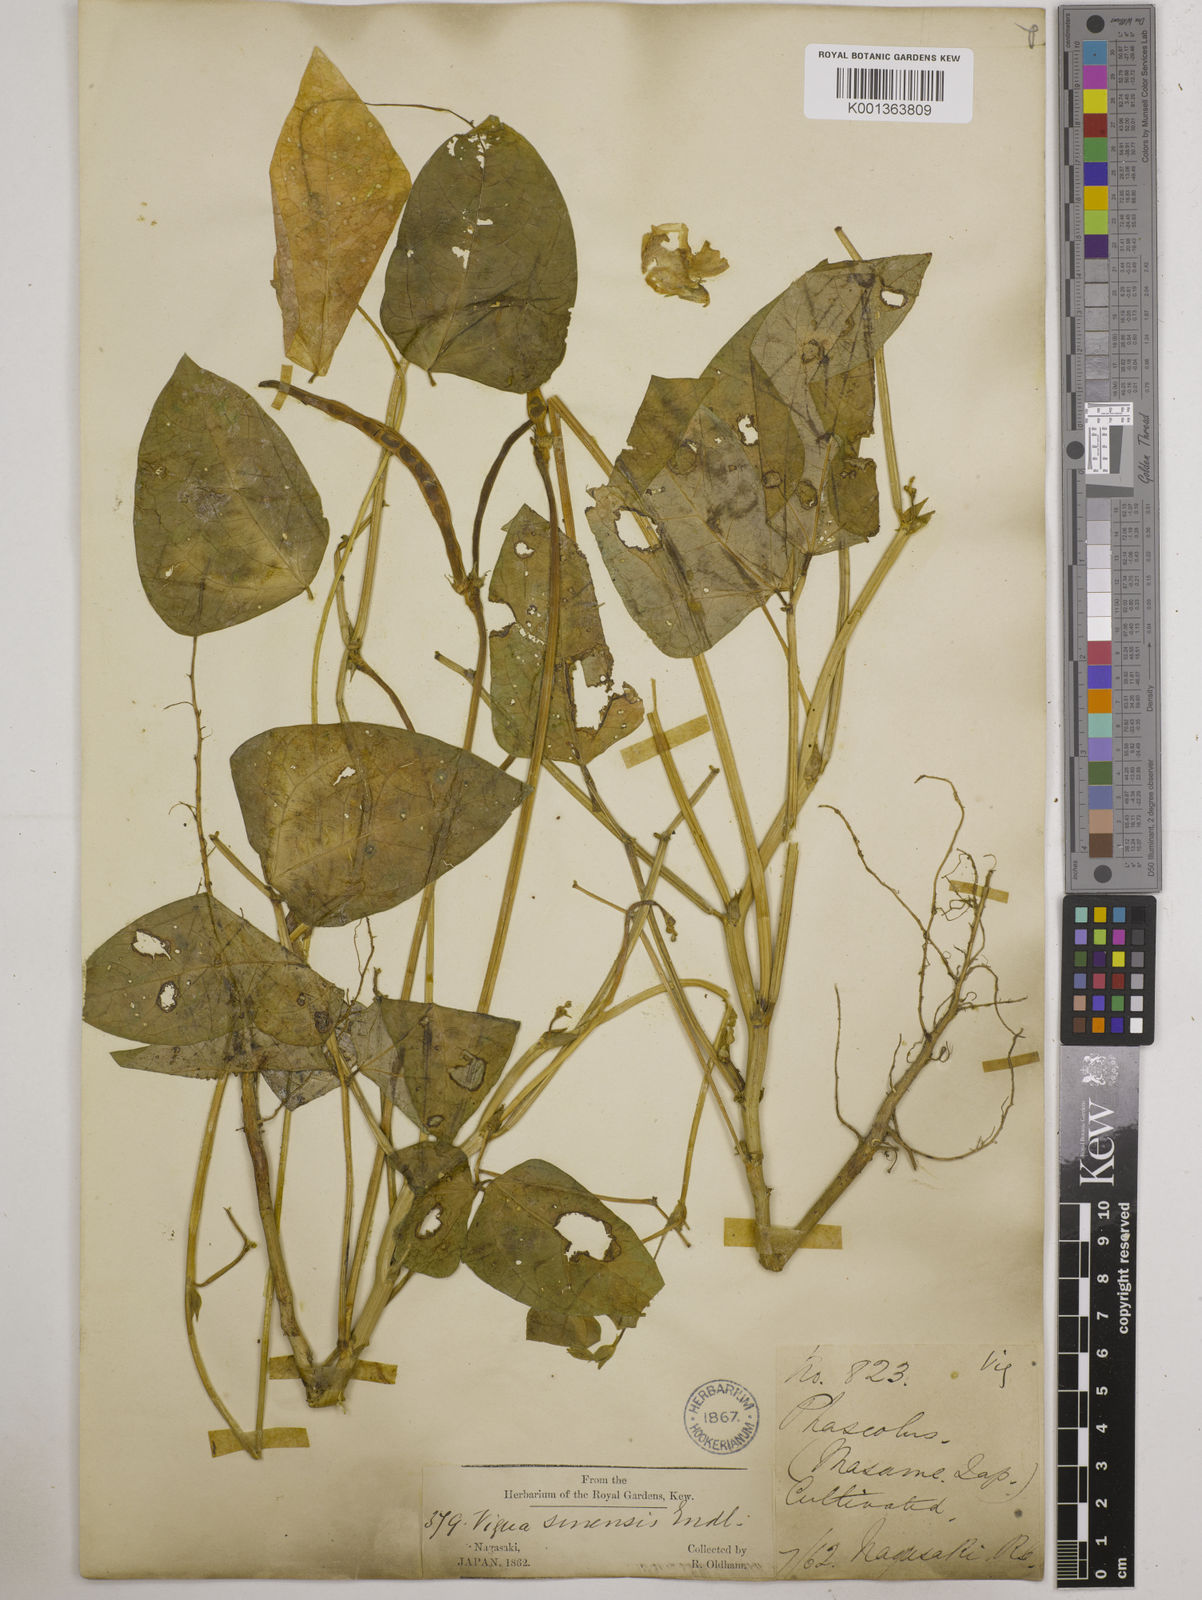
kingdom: Plantae
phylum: Tracheophyta
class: Magnoliopsida
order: Fabales
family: Fabaceae
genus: Vigna
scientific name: Vigna
